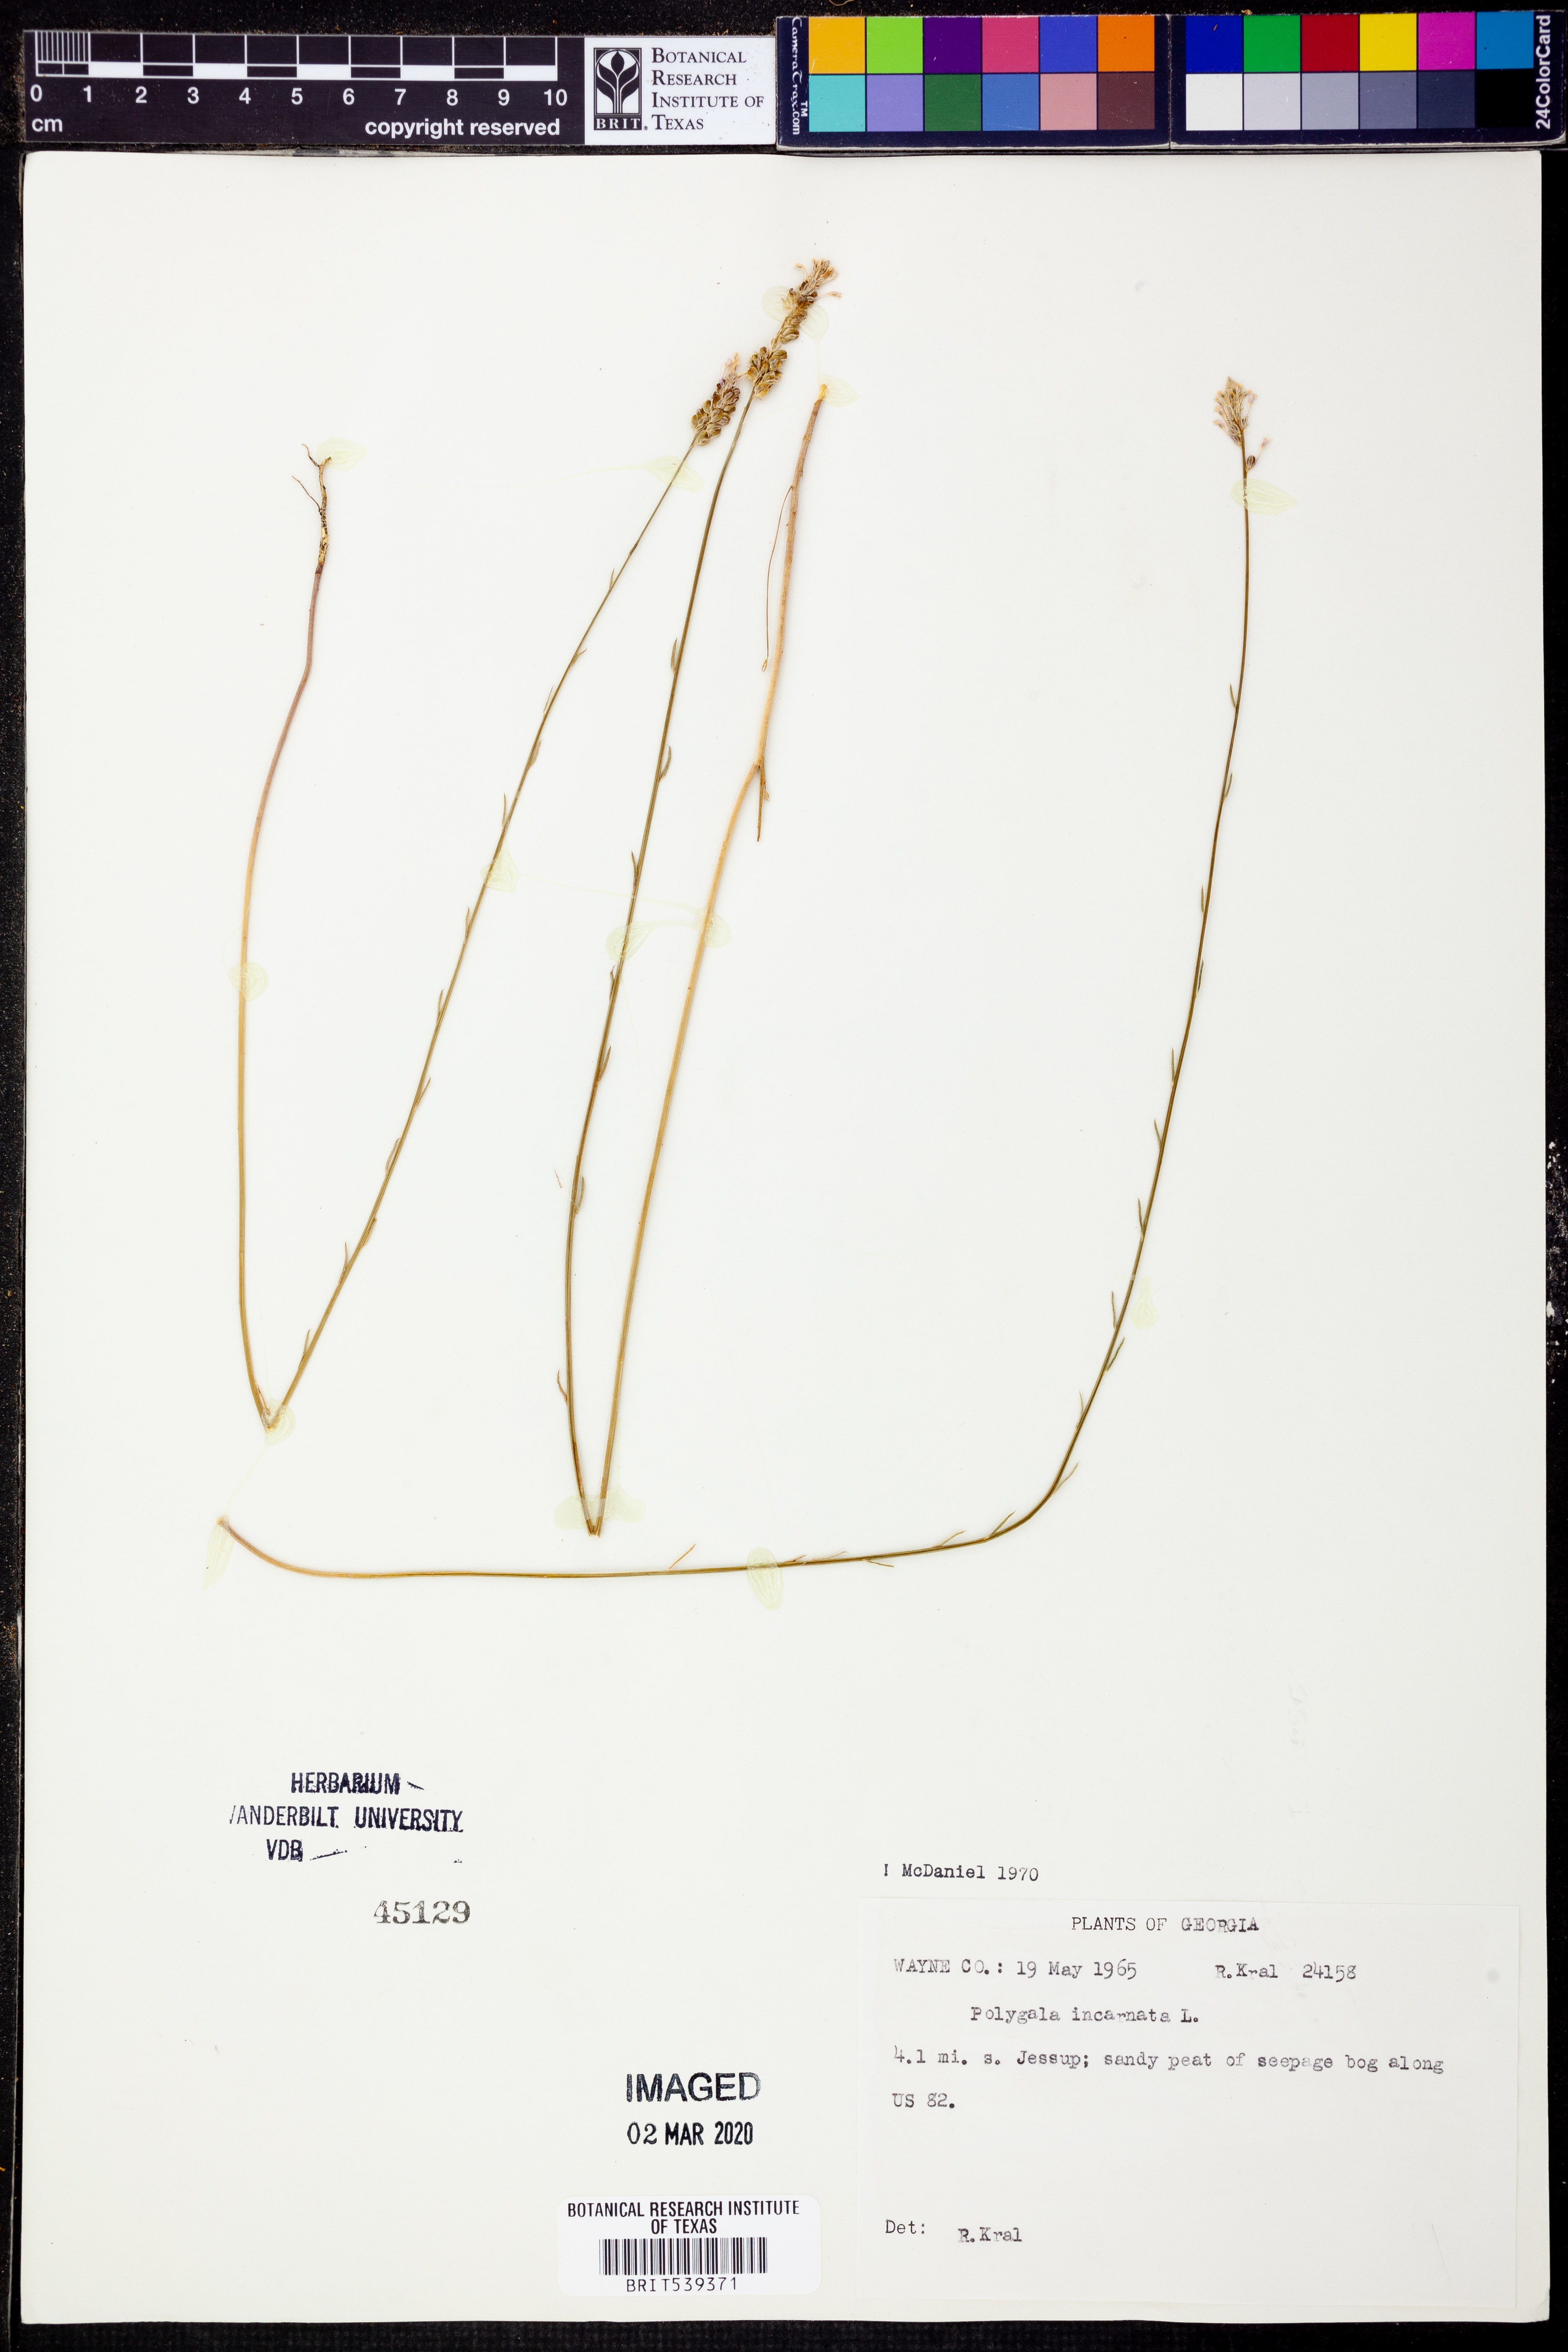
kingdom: Plantae
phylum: Tracheophyta
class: Magnoliopsida
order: Fabales
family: Polygalaceae
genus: Polygala
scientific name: Polygala incarnata
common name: Pink milkwort
